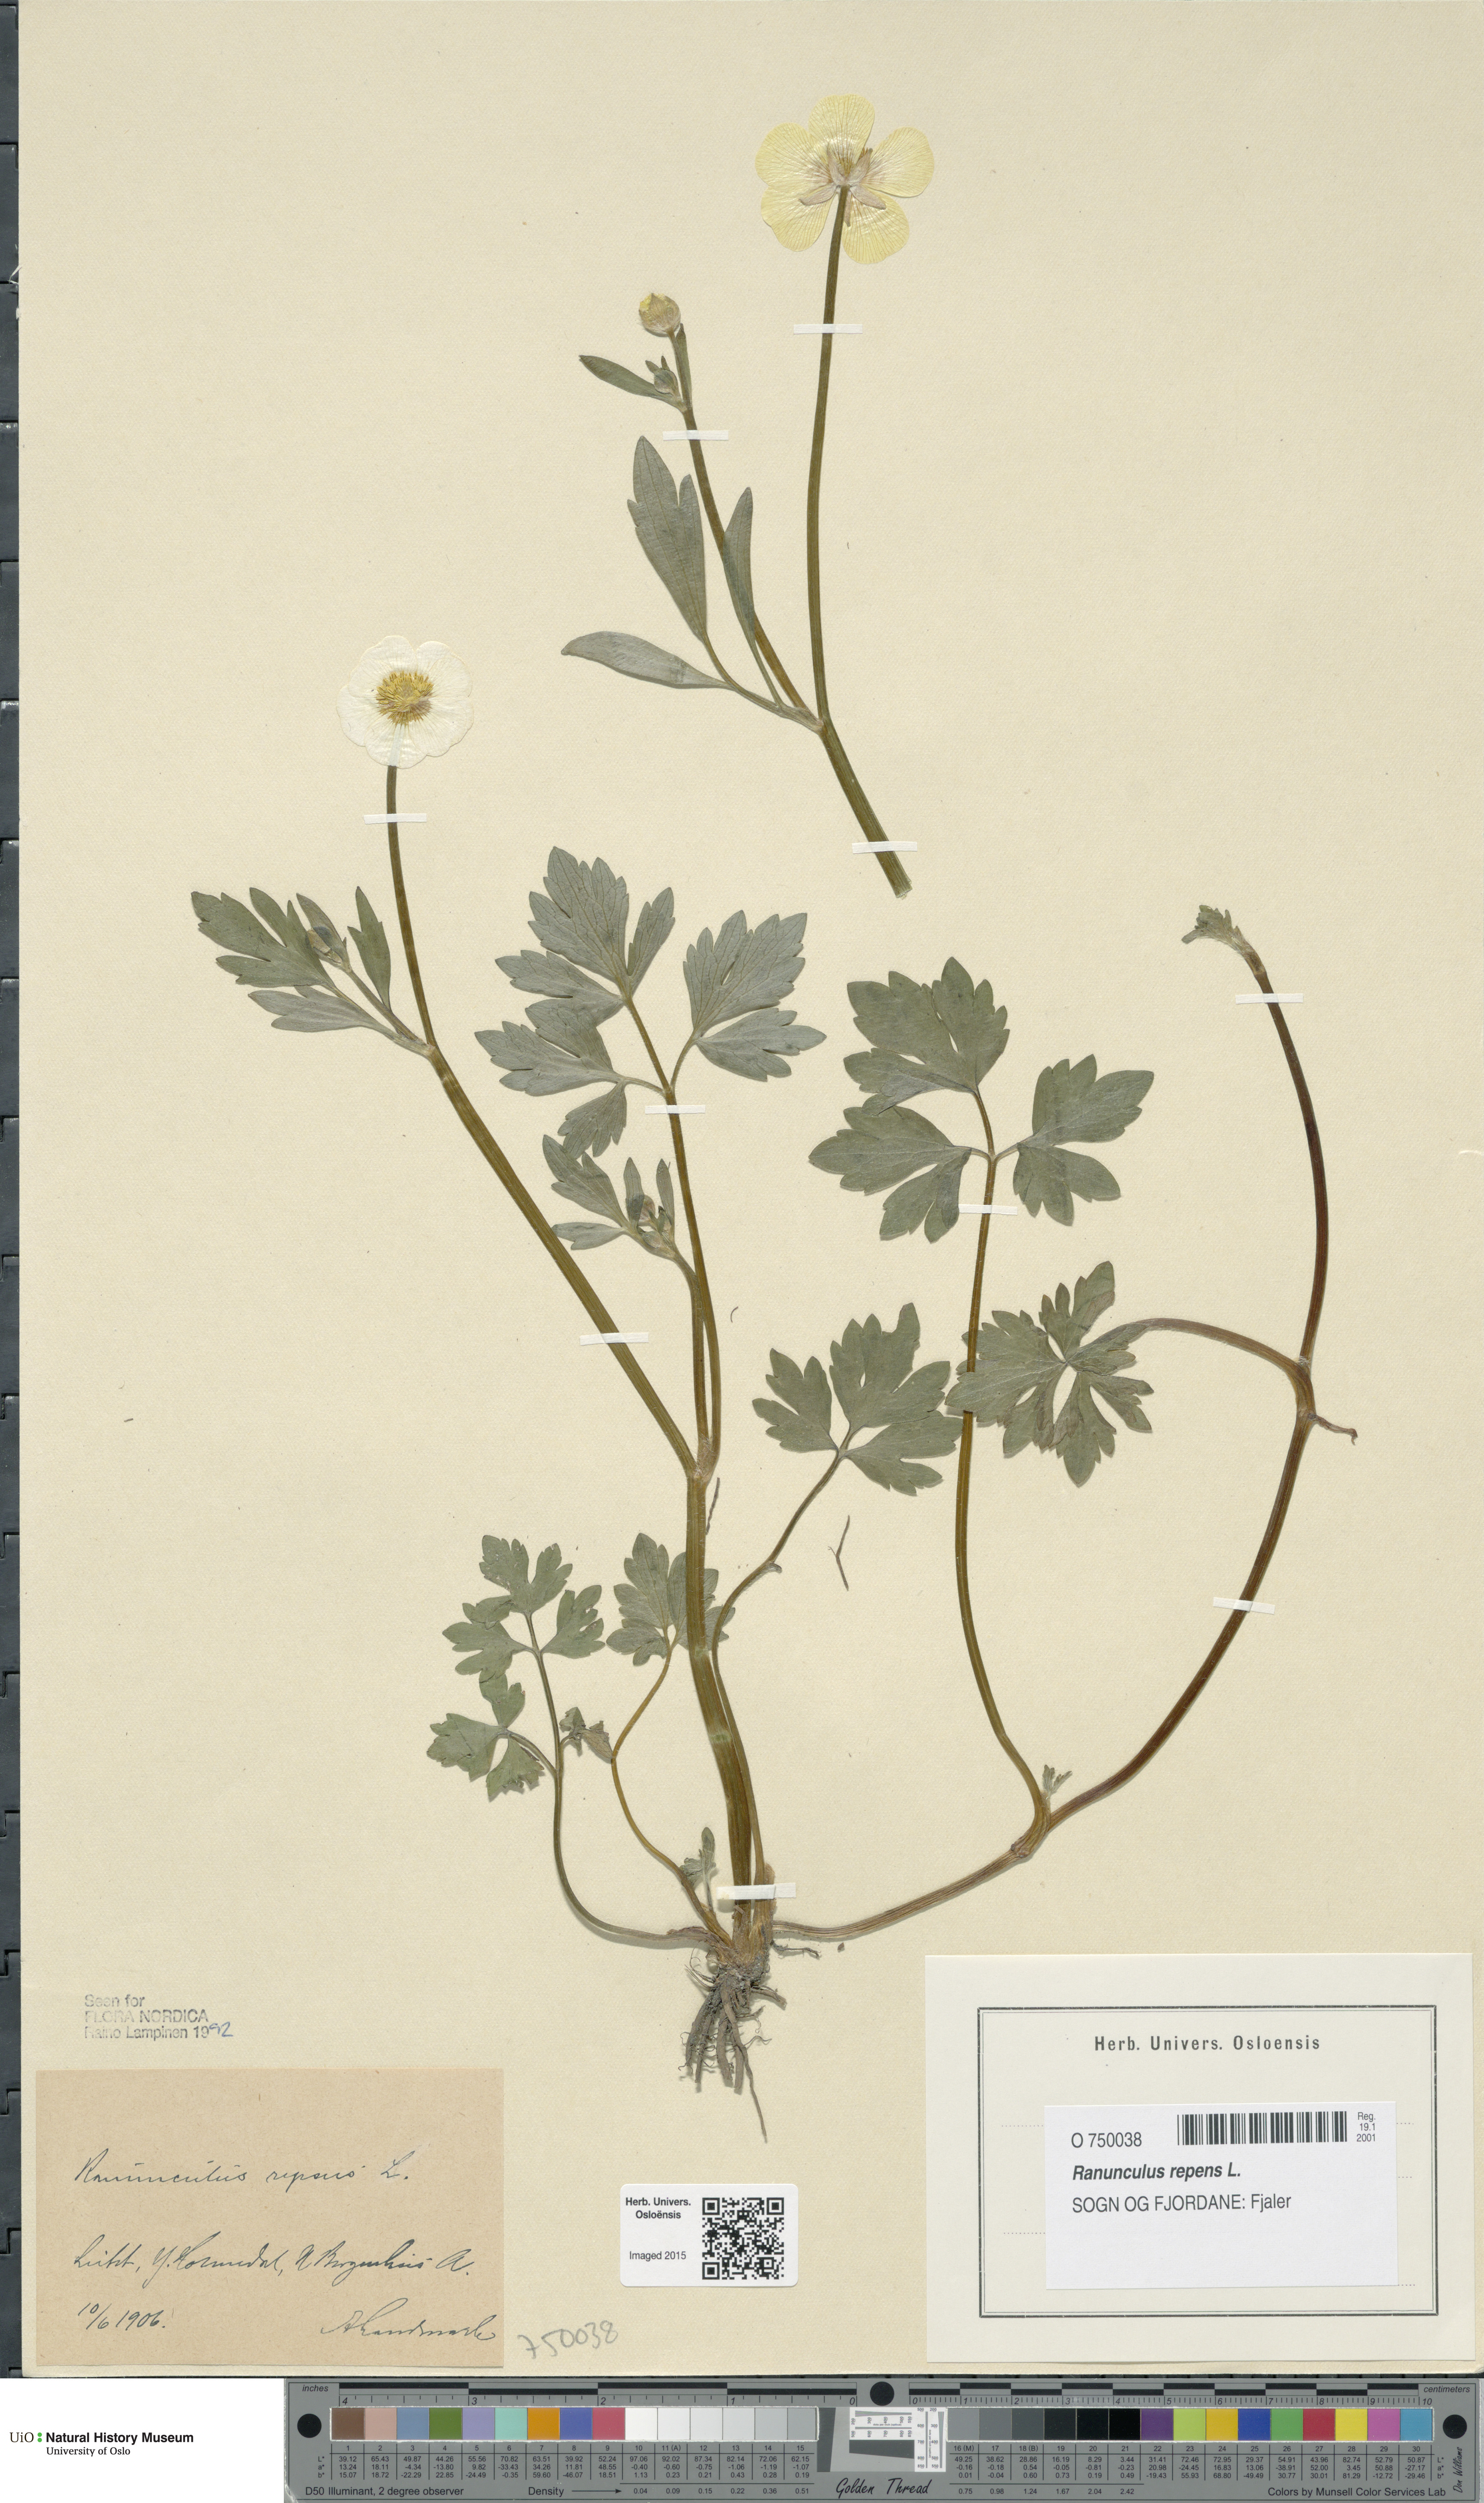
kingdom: Plantae
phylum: Tracheophyta
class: Magnoliopsida
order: Ranunculales
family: Ranunculaceae
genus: Ranunculus
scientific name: Ranunculus repens
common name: Creeping buttercup
